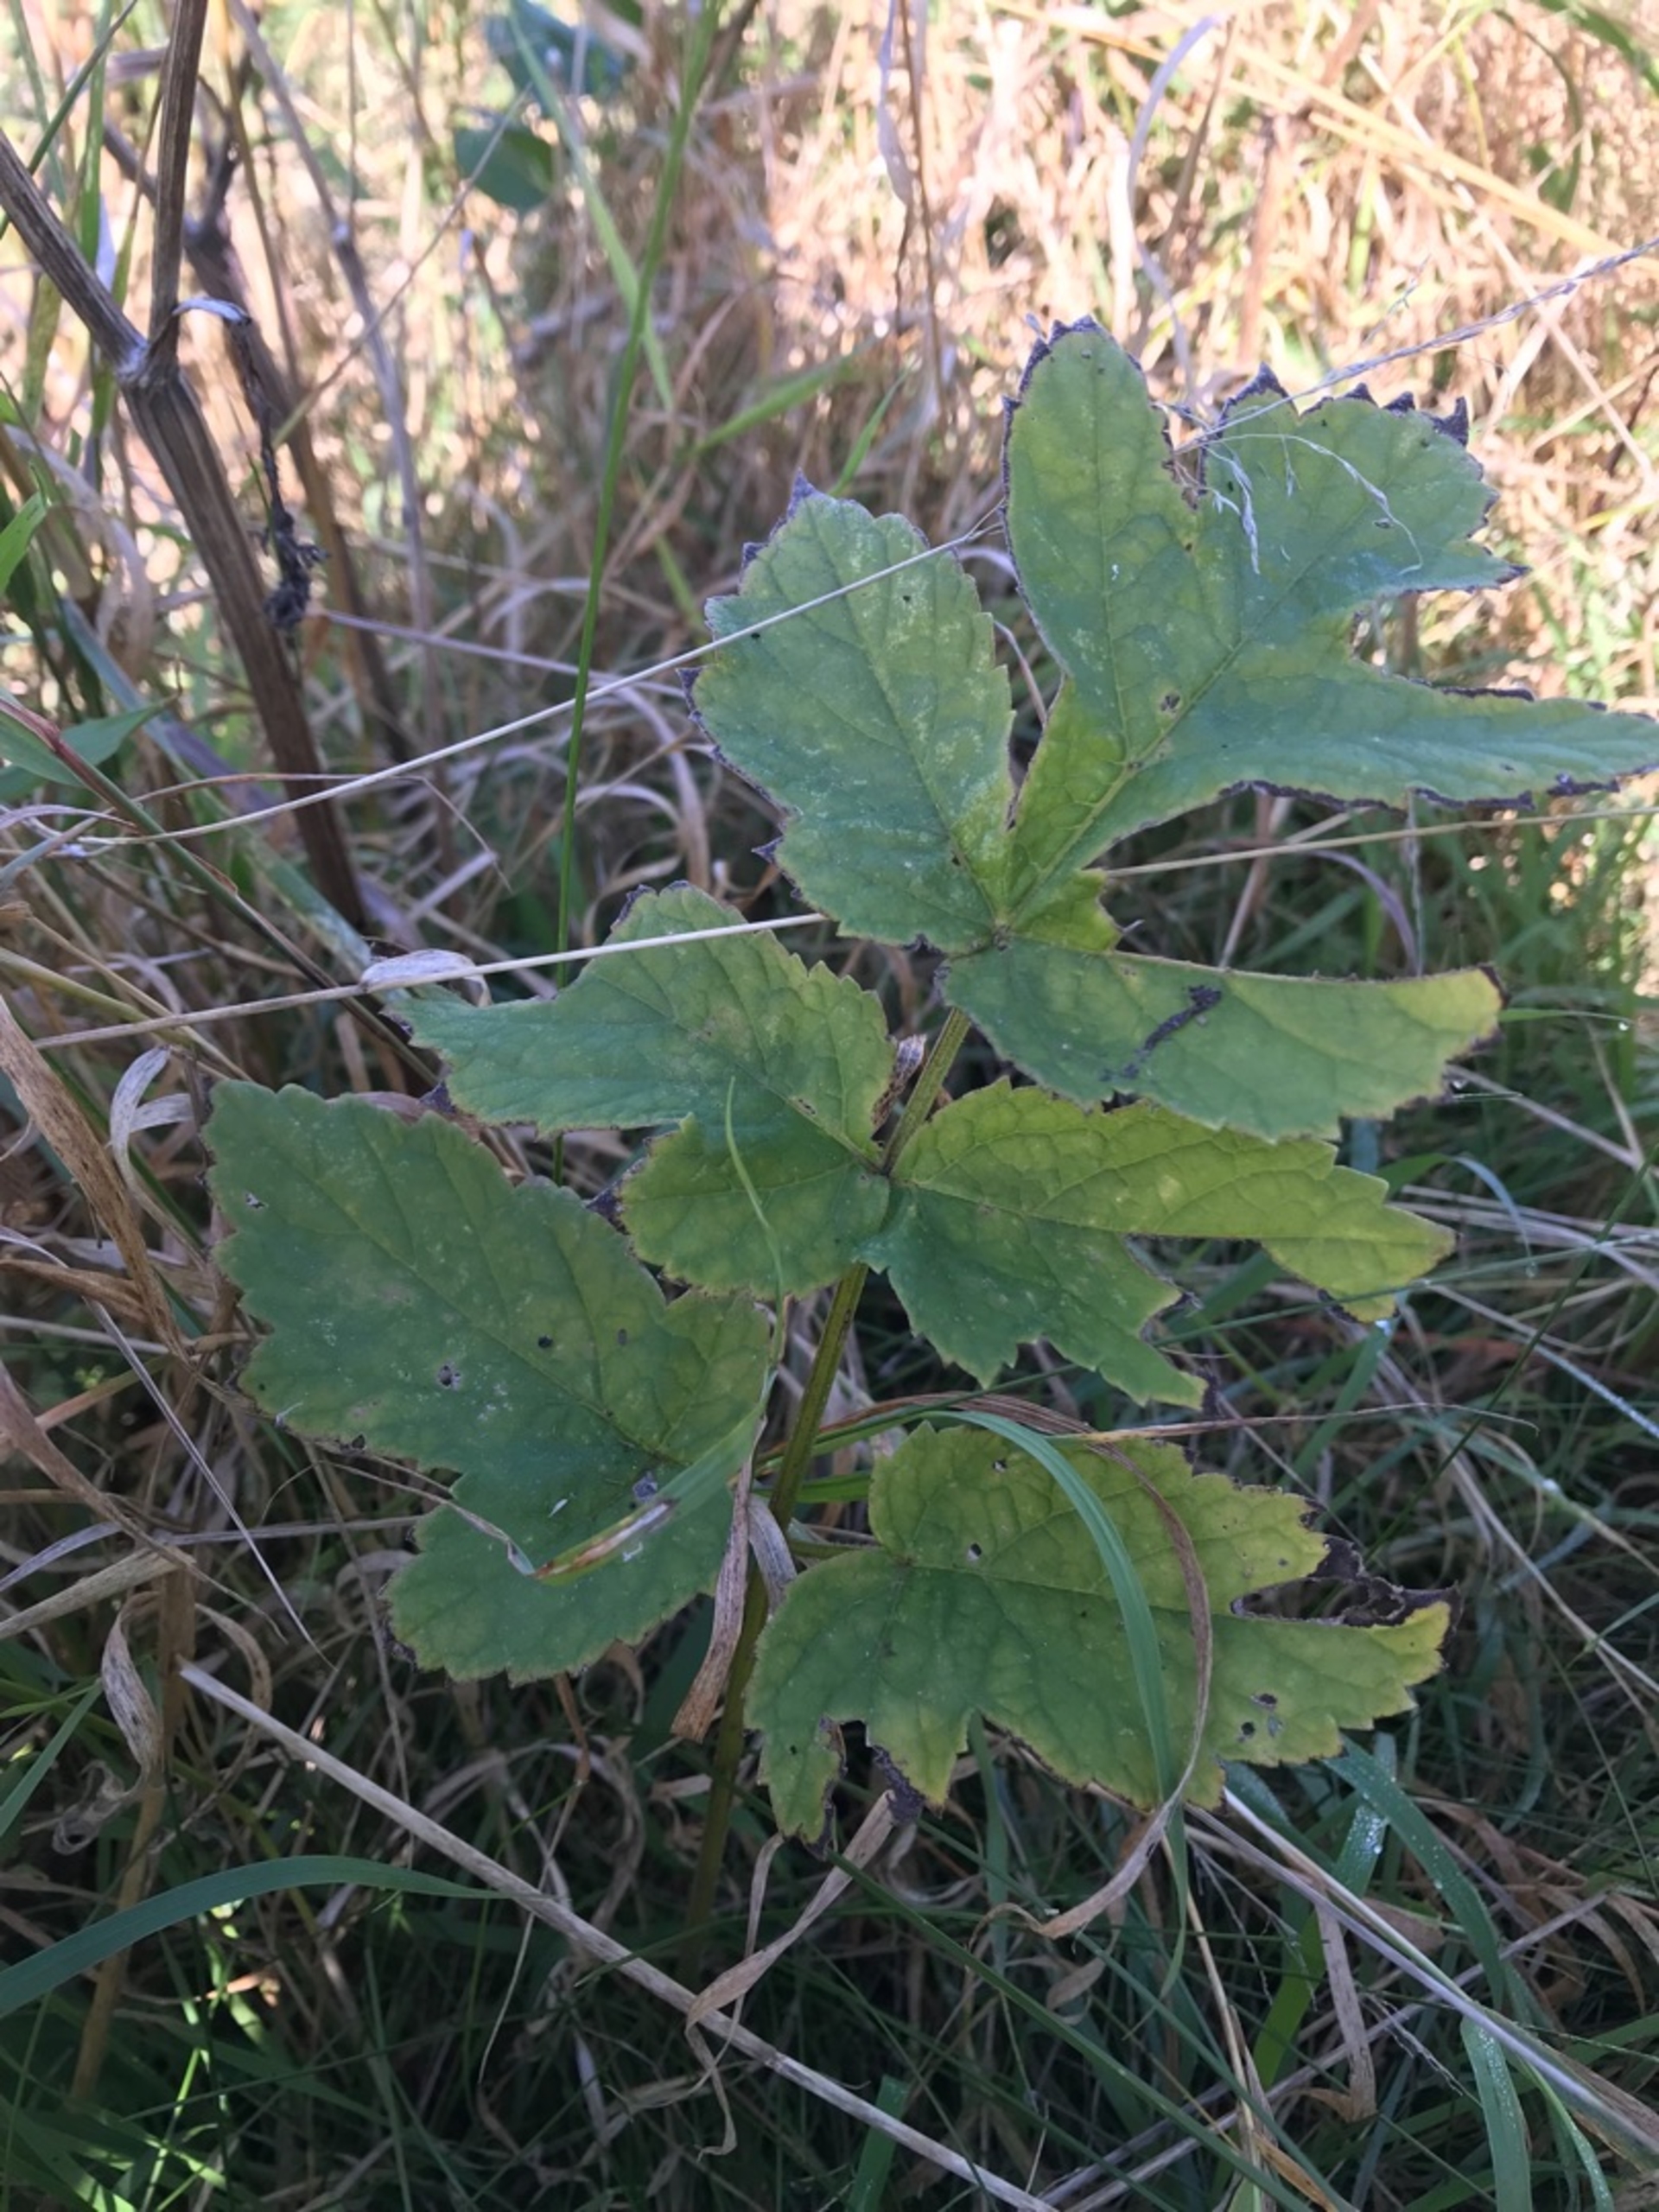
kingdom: Plantae
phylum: Tracheophyta
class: Magnoliopsida
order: Apiales
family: Apiaceae
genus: Heracleum
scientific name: Heracleum sphondylium
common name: Almindelig bjørneklo
